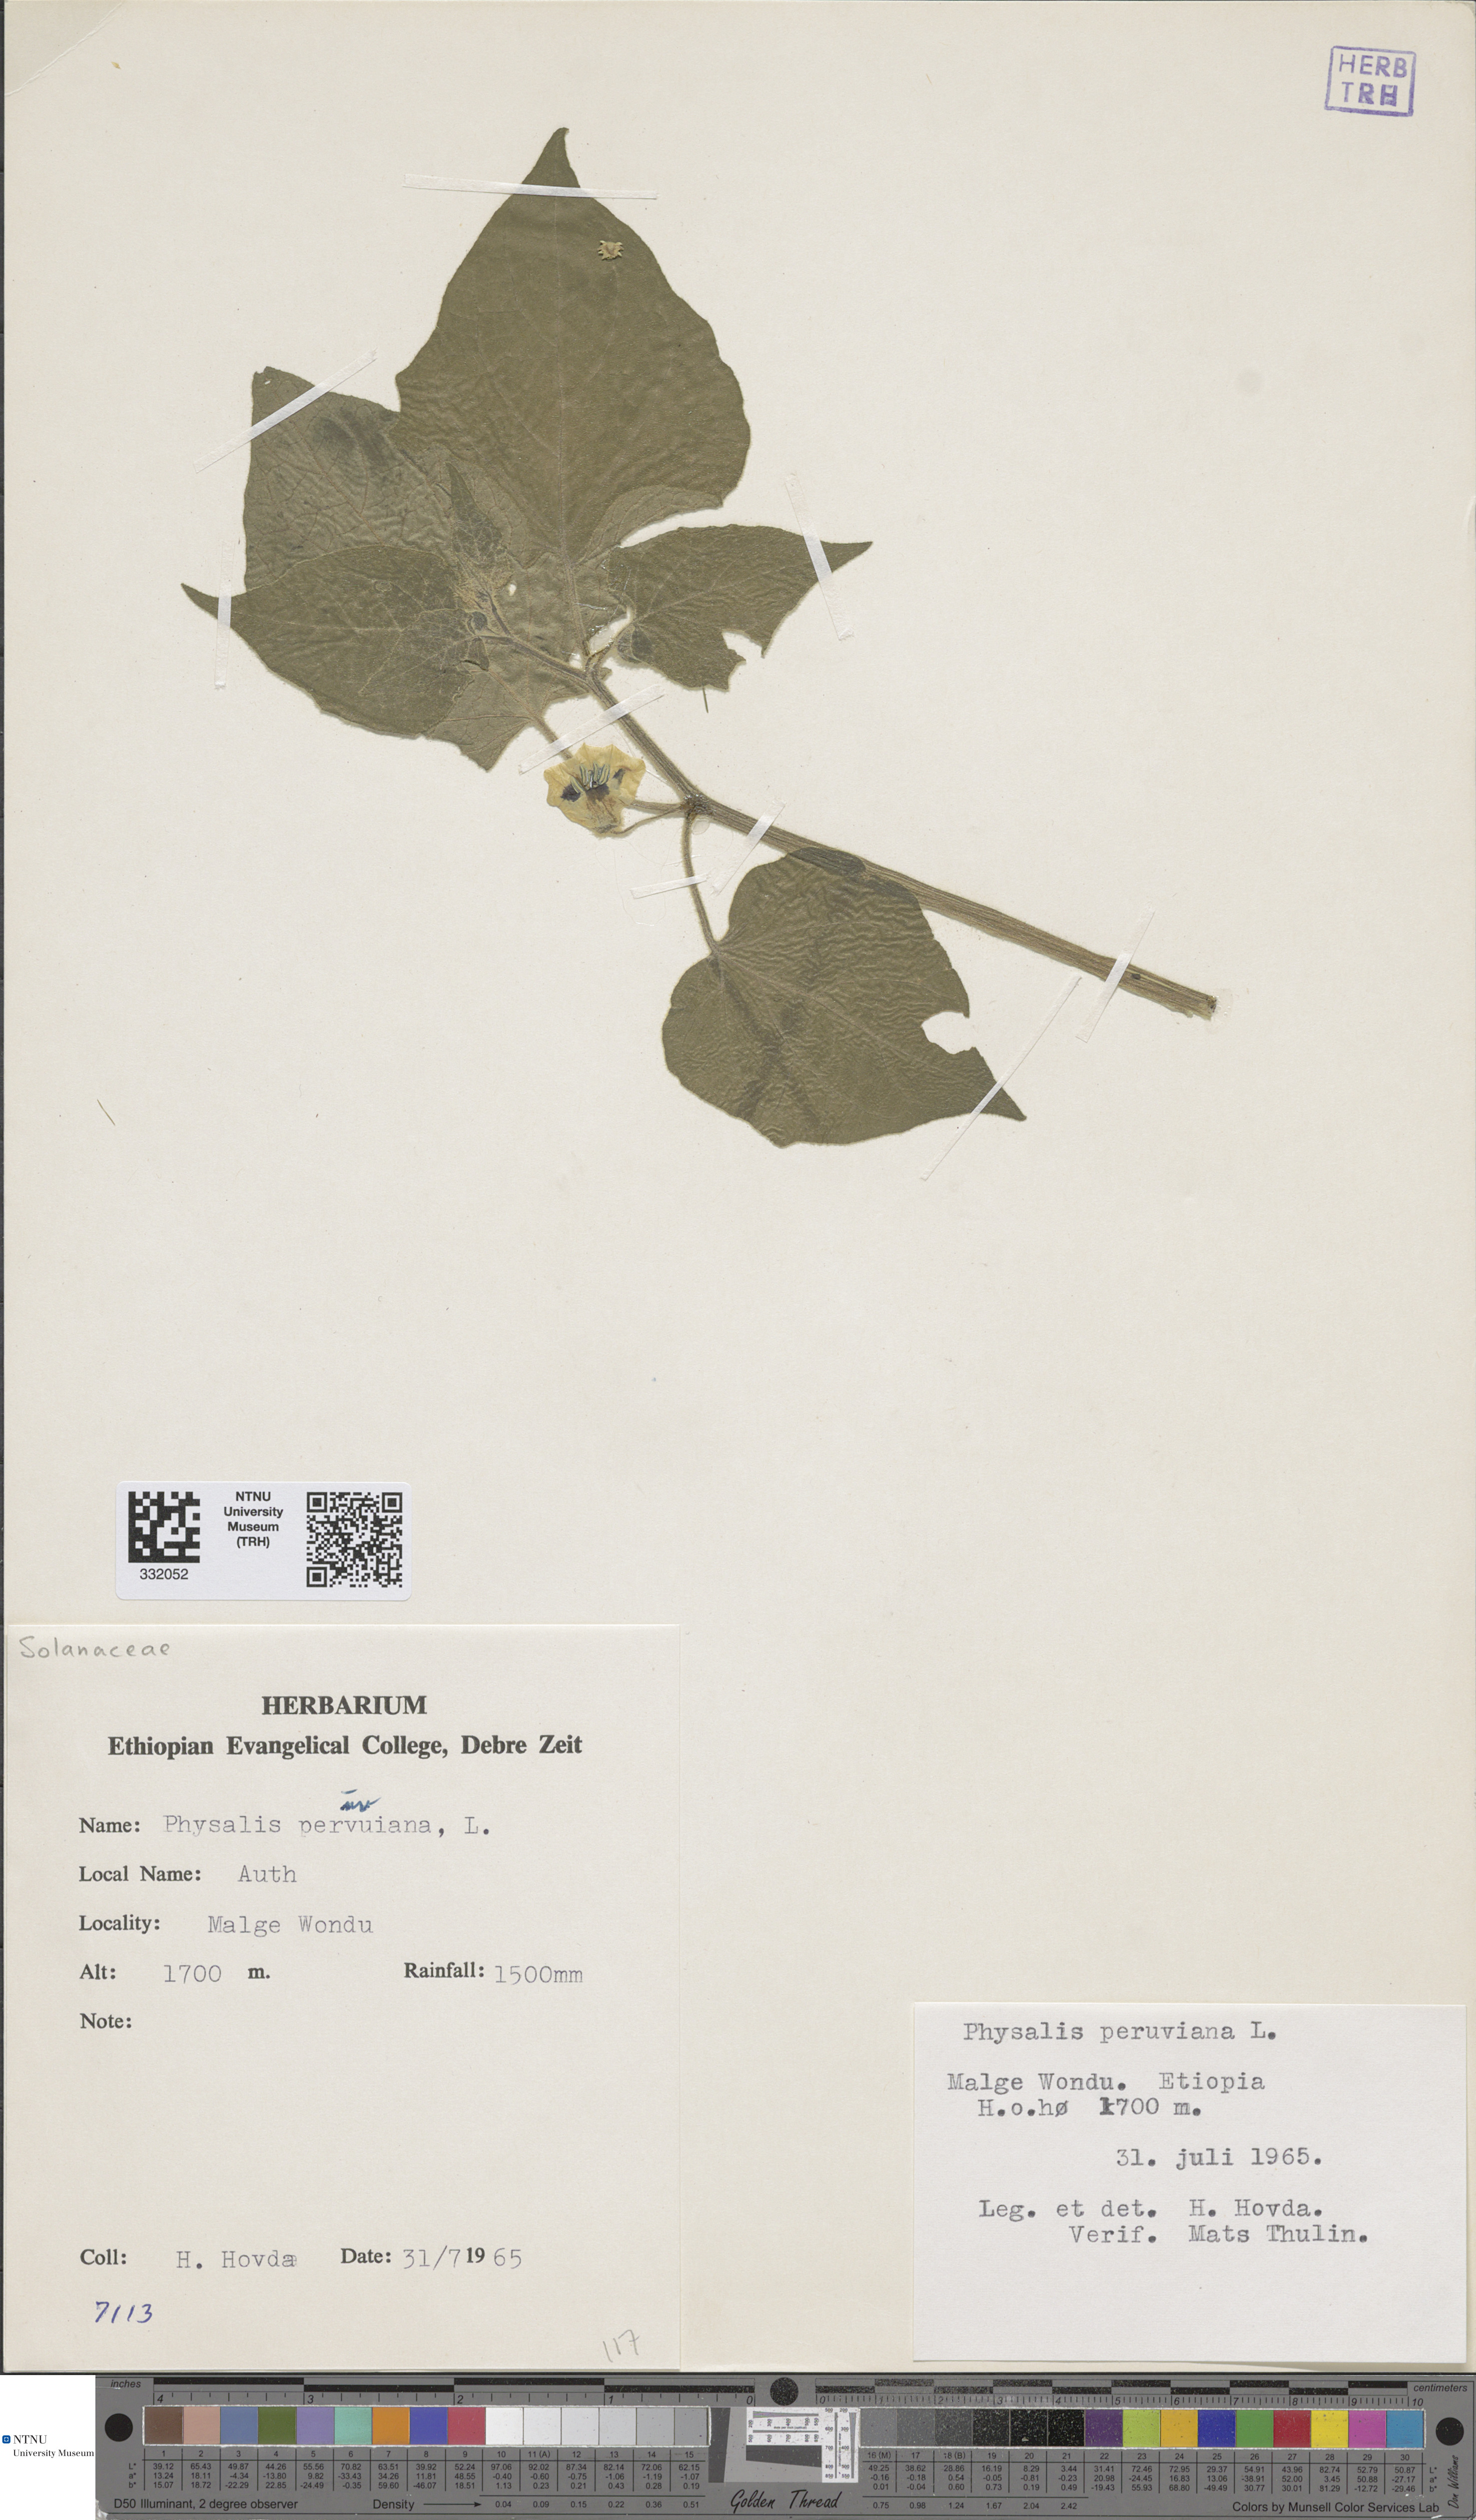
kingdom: Plantae
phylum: Tracheophyta
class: Magnoliopsida
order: Solanales
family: Solanaceae
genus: Physalis
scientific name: Physalis peruviana
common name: Cape-gooseberry
